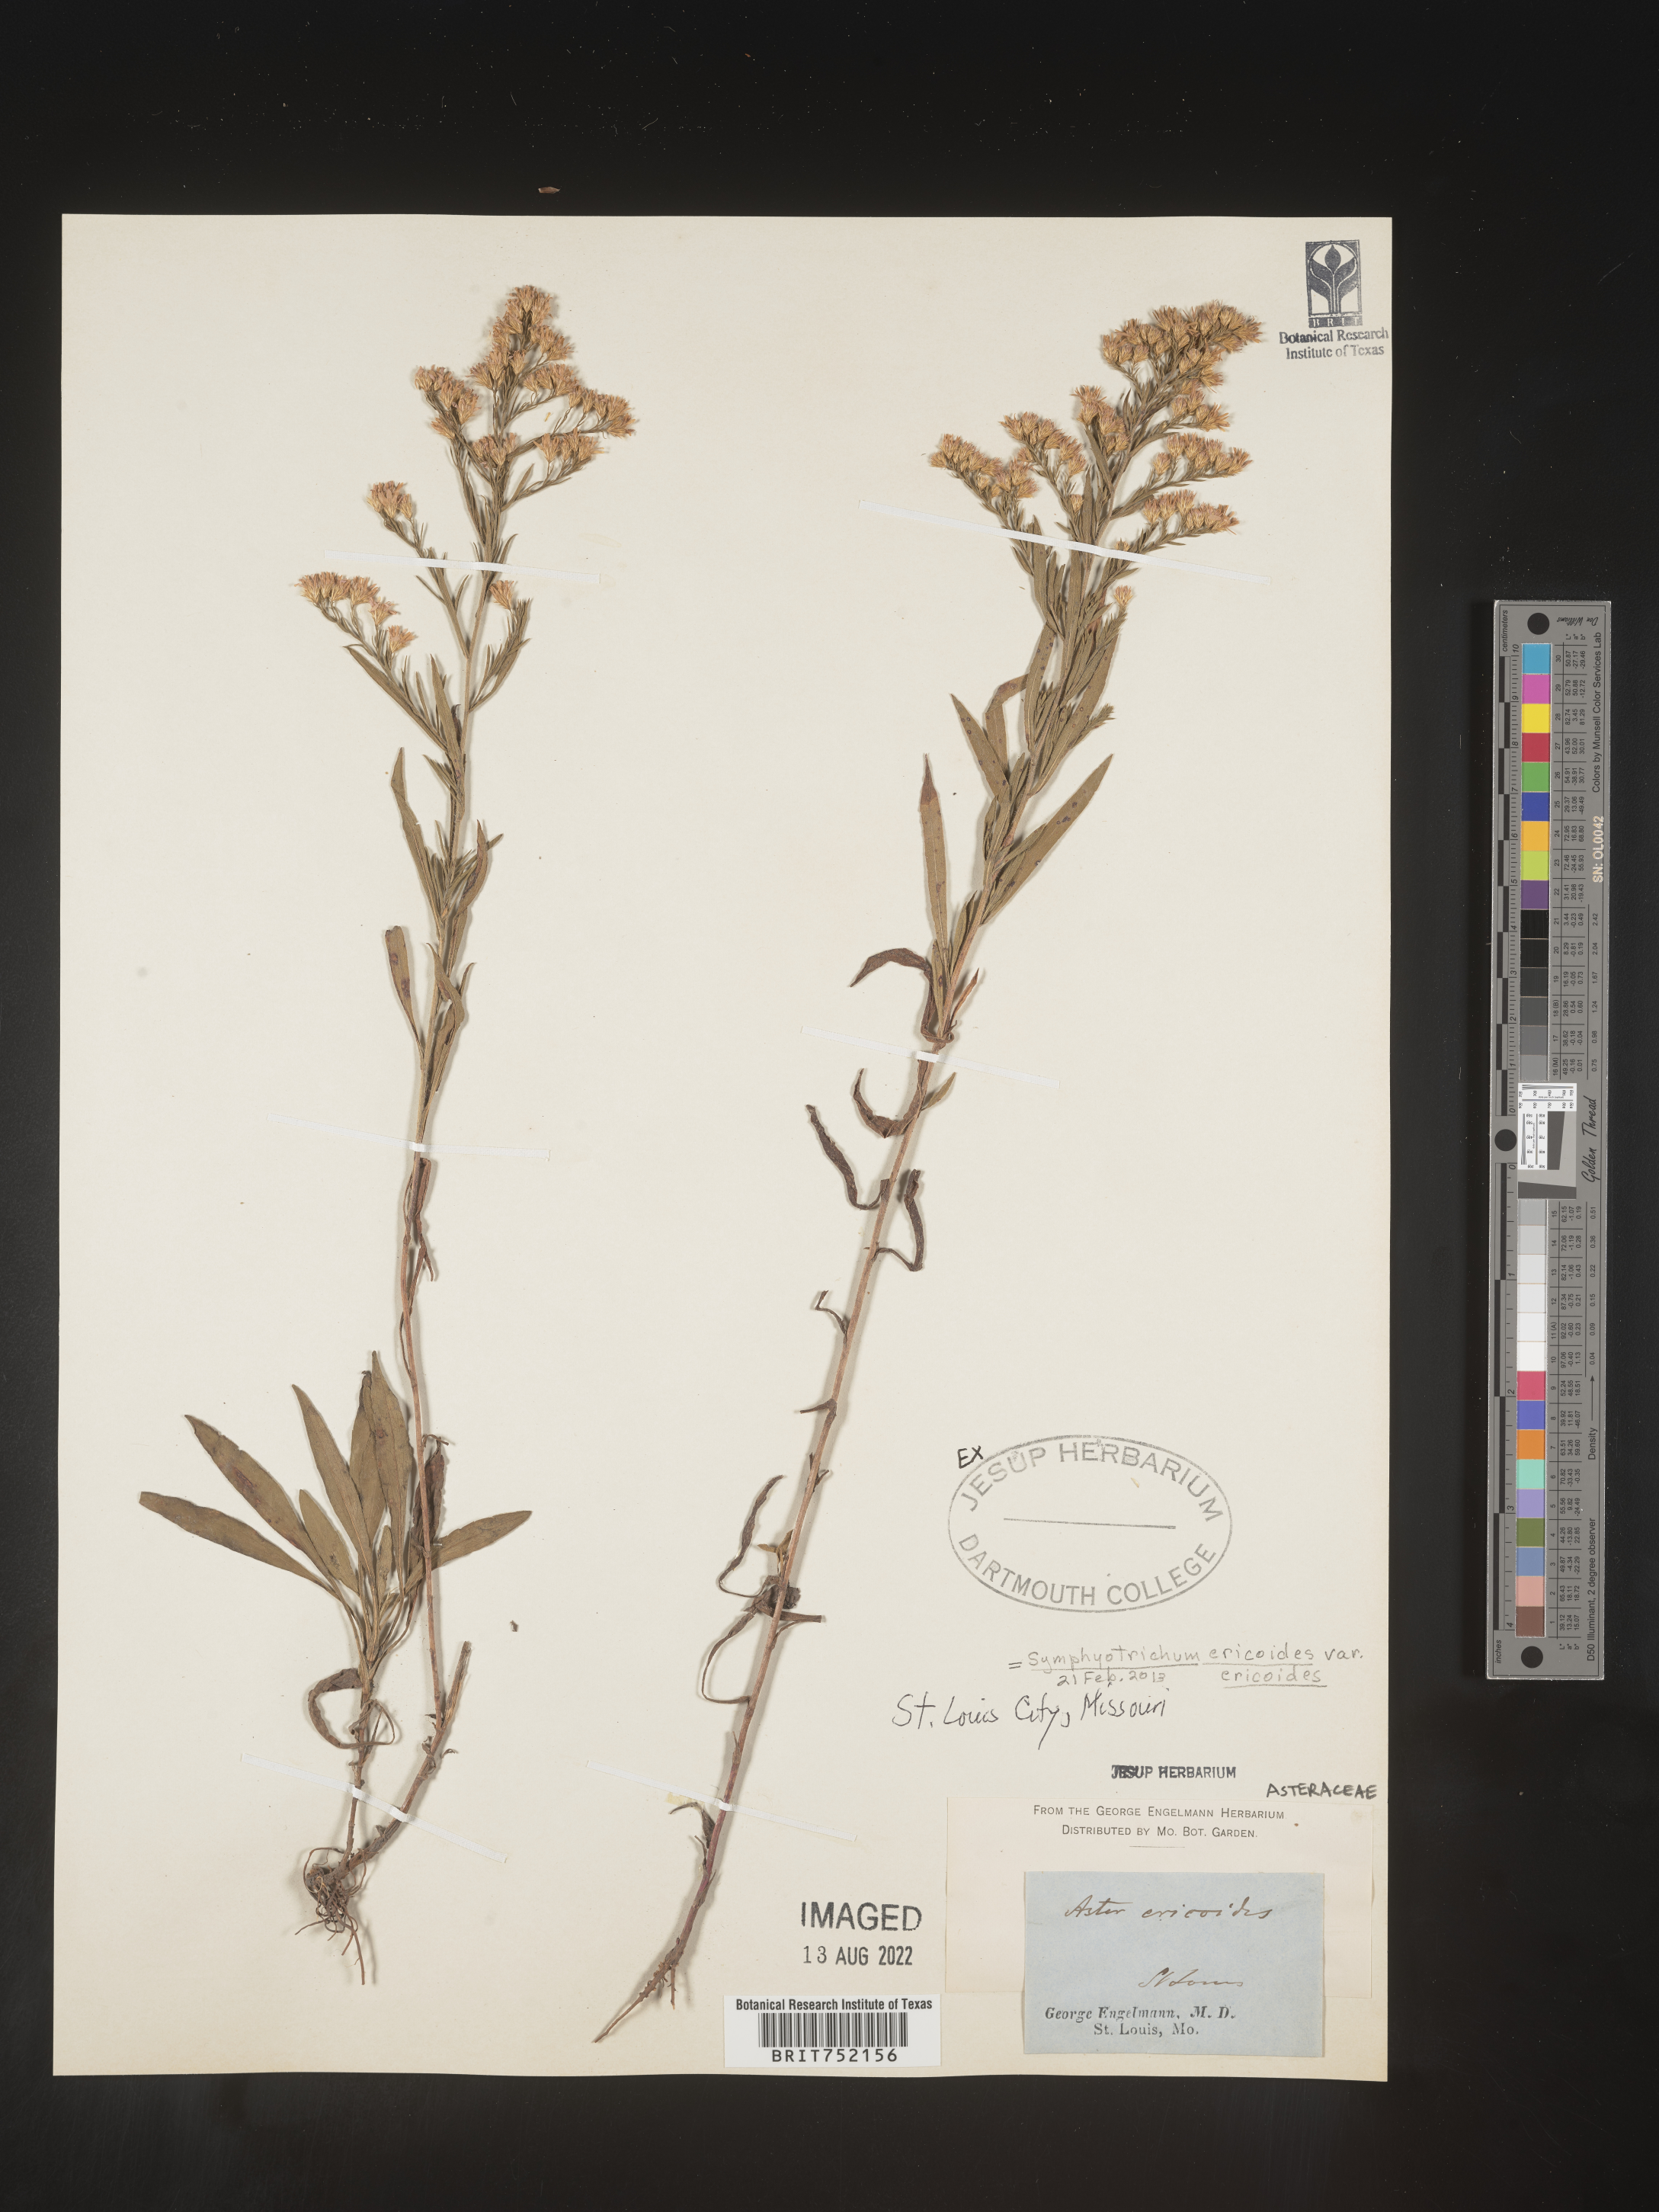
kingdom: Plantae
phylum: Tracheophyta
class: Magnoliopsida
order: Asterales
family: Asteraceae
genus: Symphyotrichum
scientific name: Symphyotrichum ericoides
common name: Heath aster
